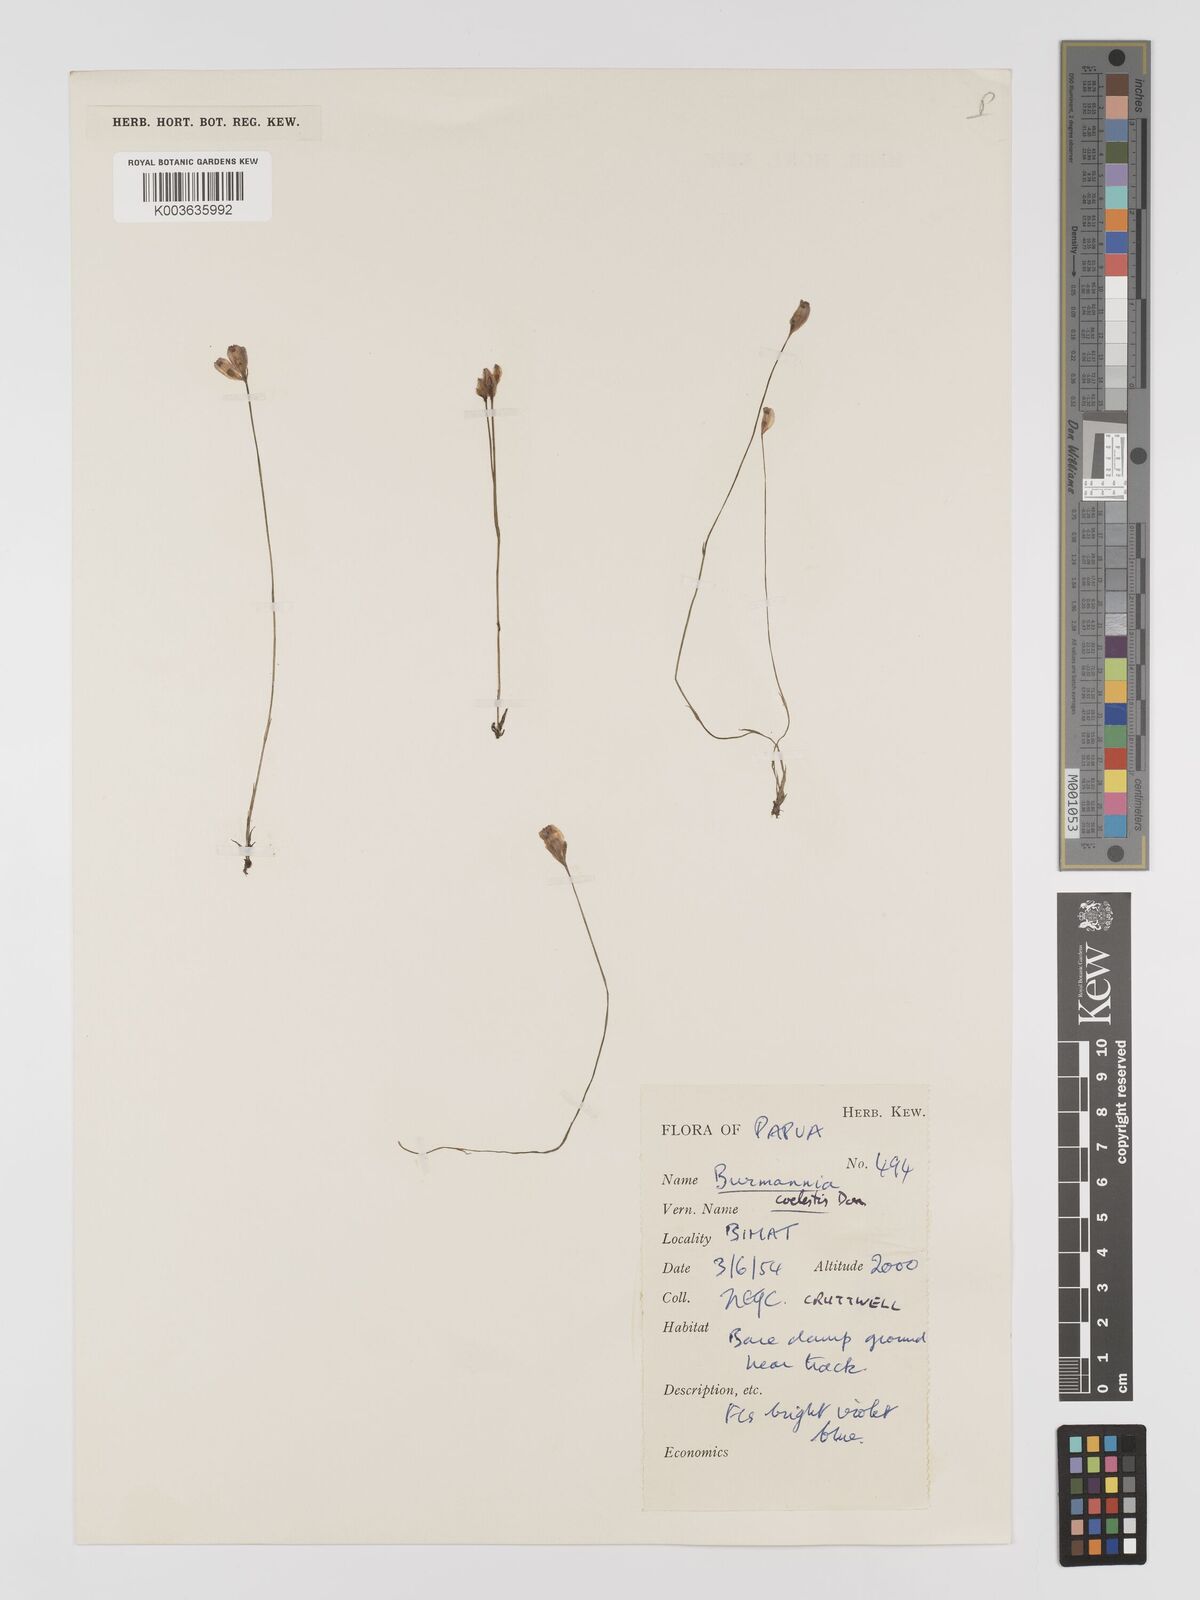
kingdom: Plantae
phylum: Tracheophyta
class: Liliopsida
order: Dioscoreales
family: Burmanniaceae
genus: Burmannia
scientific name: Burmannia coelestis
